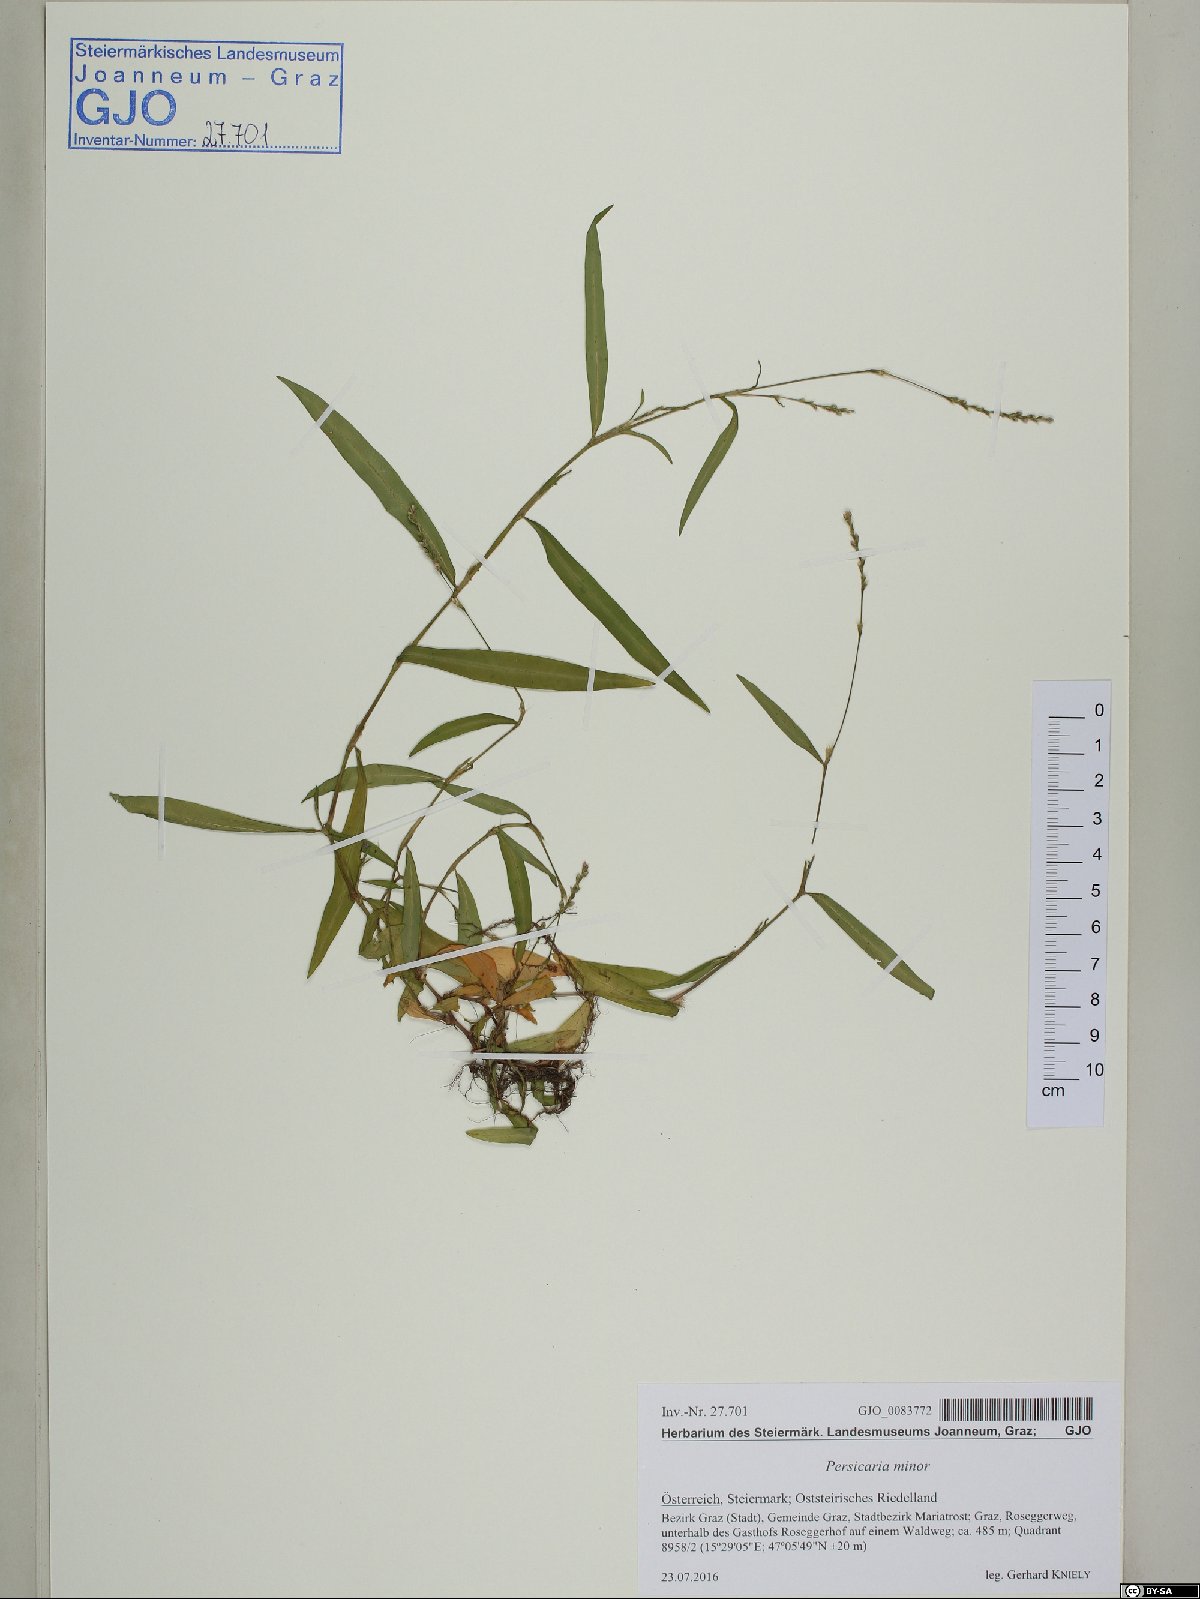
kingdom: Plantae
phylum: Tracheophyta
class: Magnoliopsida
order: Caryophyllales
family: Polygonaceae
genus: Persicaria
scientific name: Persicaria minor
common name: Small water-pepper
